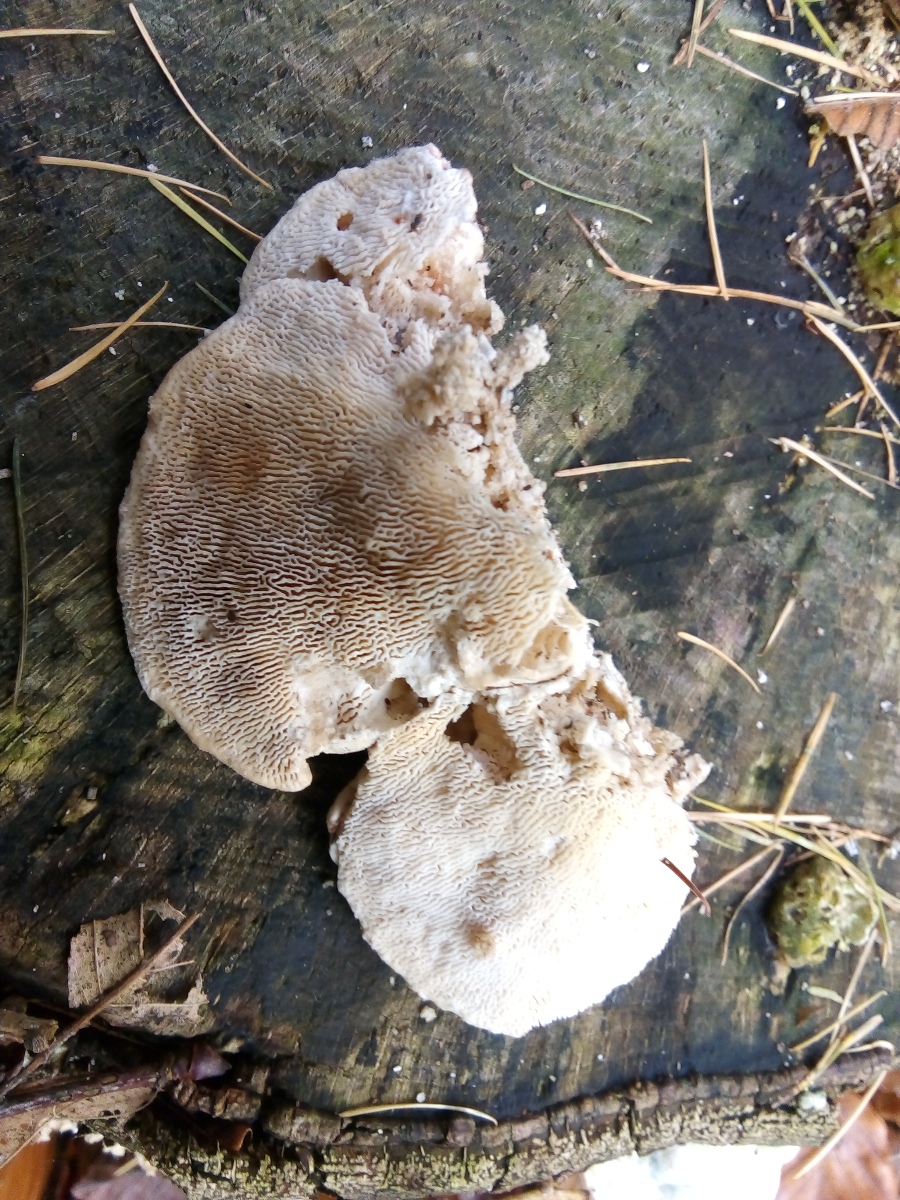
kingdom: Fungi
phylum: Basidiomycota
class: Agaricomycetes
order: Polyporales
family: Polyporaceae
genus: Trametes
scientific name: Trametes gibbosa
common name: puklet læderporesvamp
